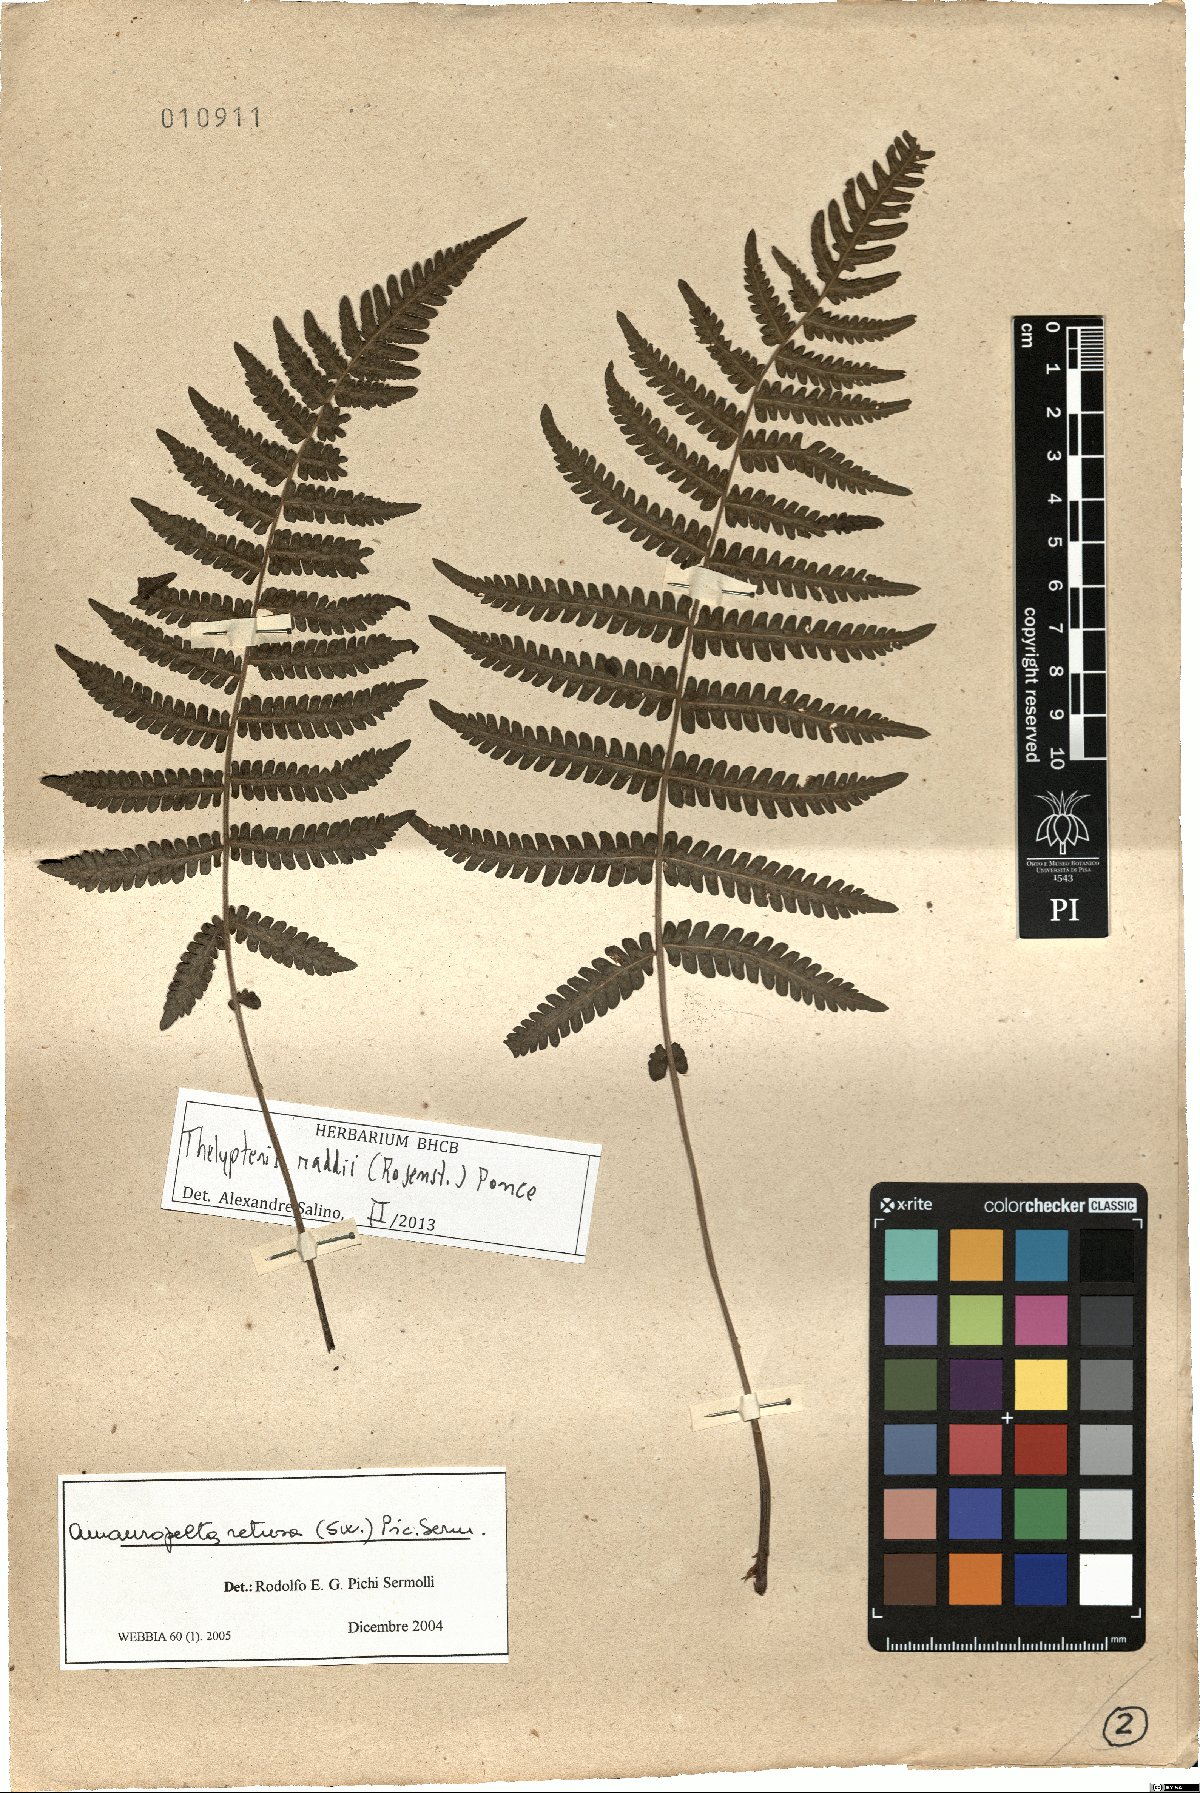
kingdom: Plantae
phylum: Tracheophyta
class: Polypodiopsida
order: Polypodiales
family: Thelypteridaceae
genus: Amauropelta
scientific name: Amauropelta raddii
